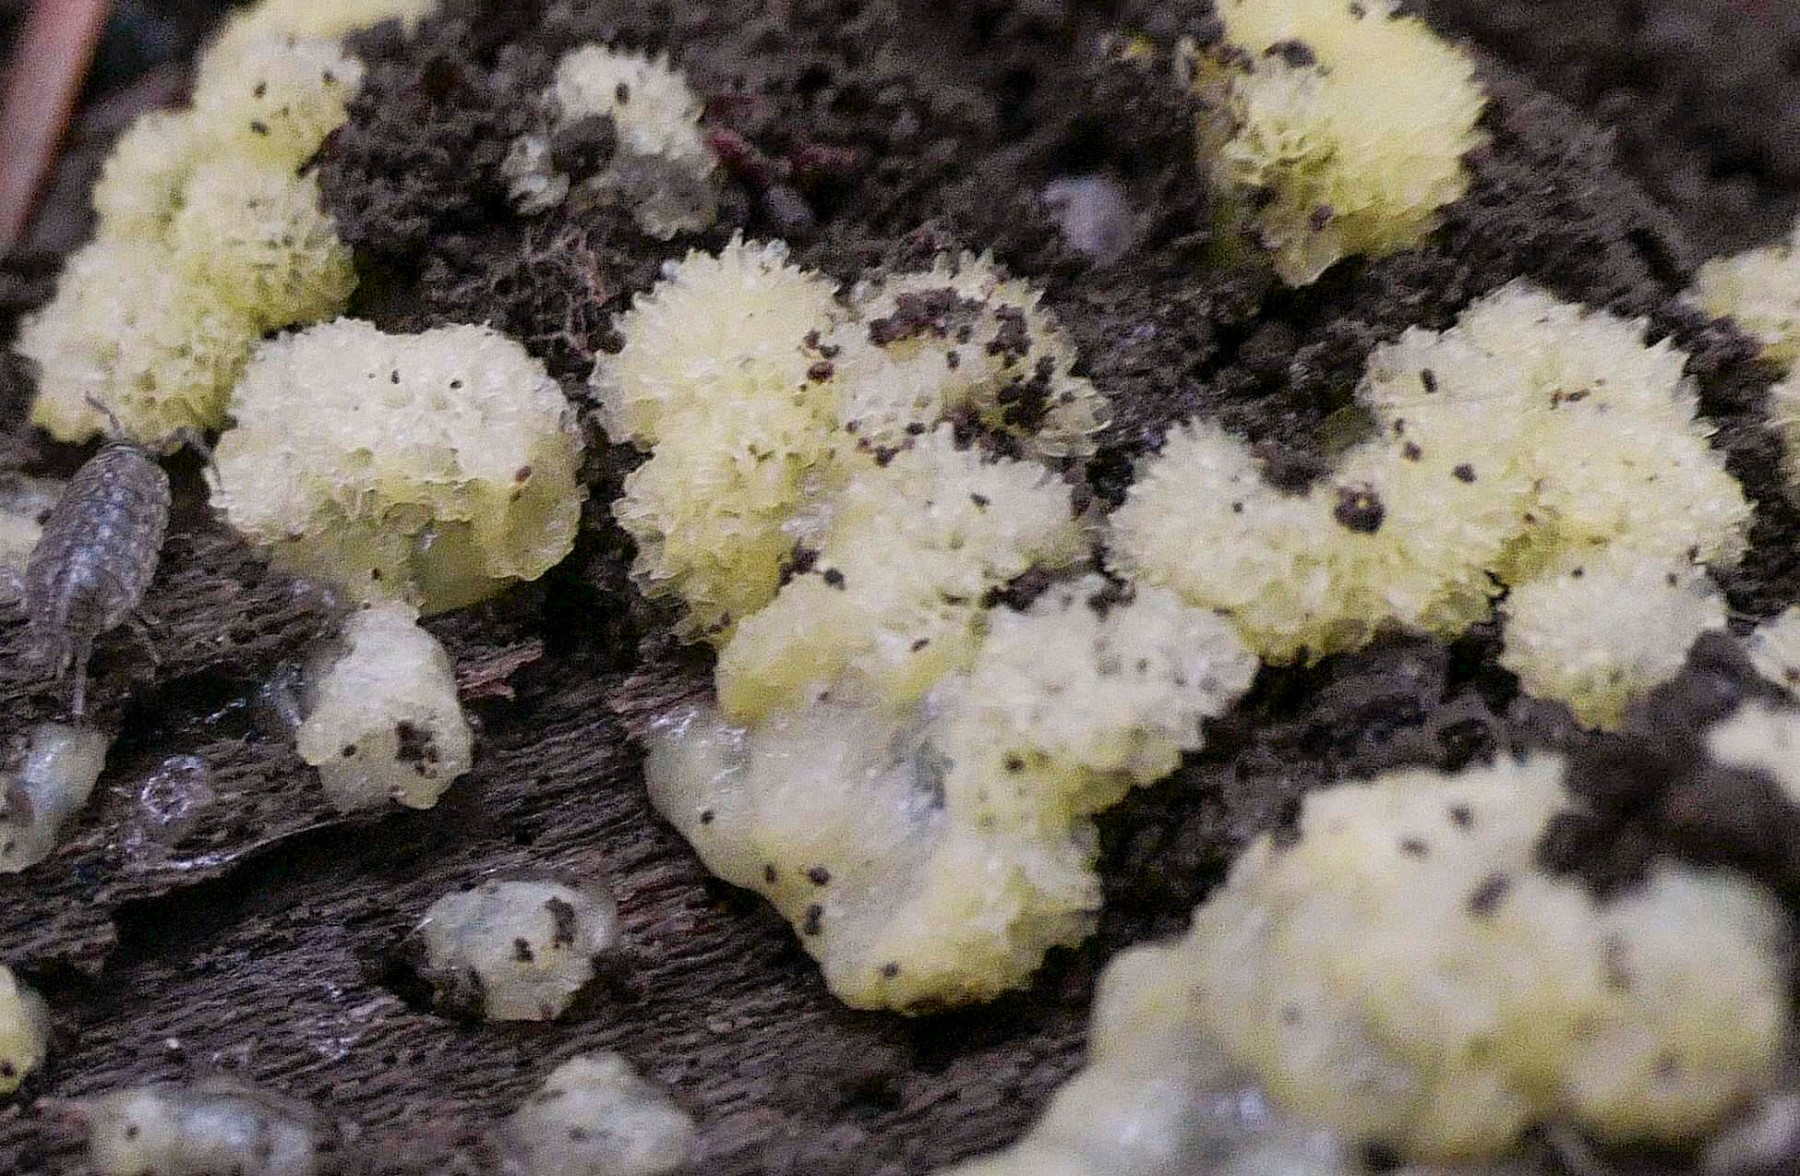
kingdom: Protozoa
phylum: Mycetozoa
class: Protosteliomycetes
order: Ceratiomyxales
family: Ceratiomyxaceae
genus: Ceratiomyxa
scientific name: Ceratiomyxa fruticulosa
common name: Honeycomb coral slime mold
